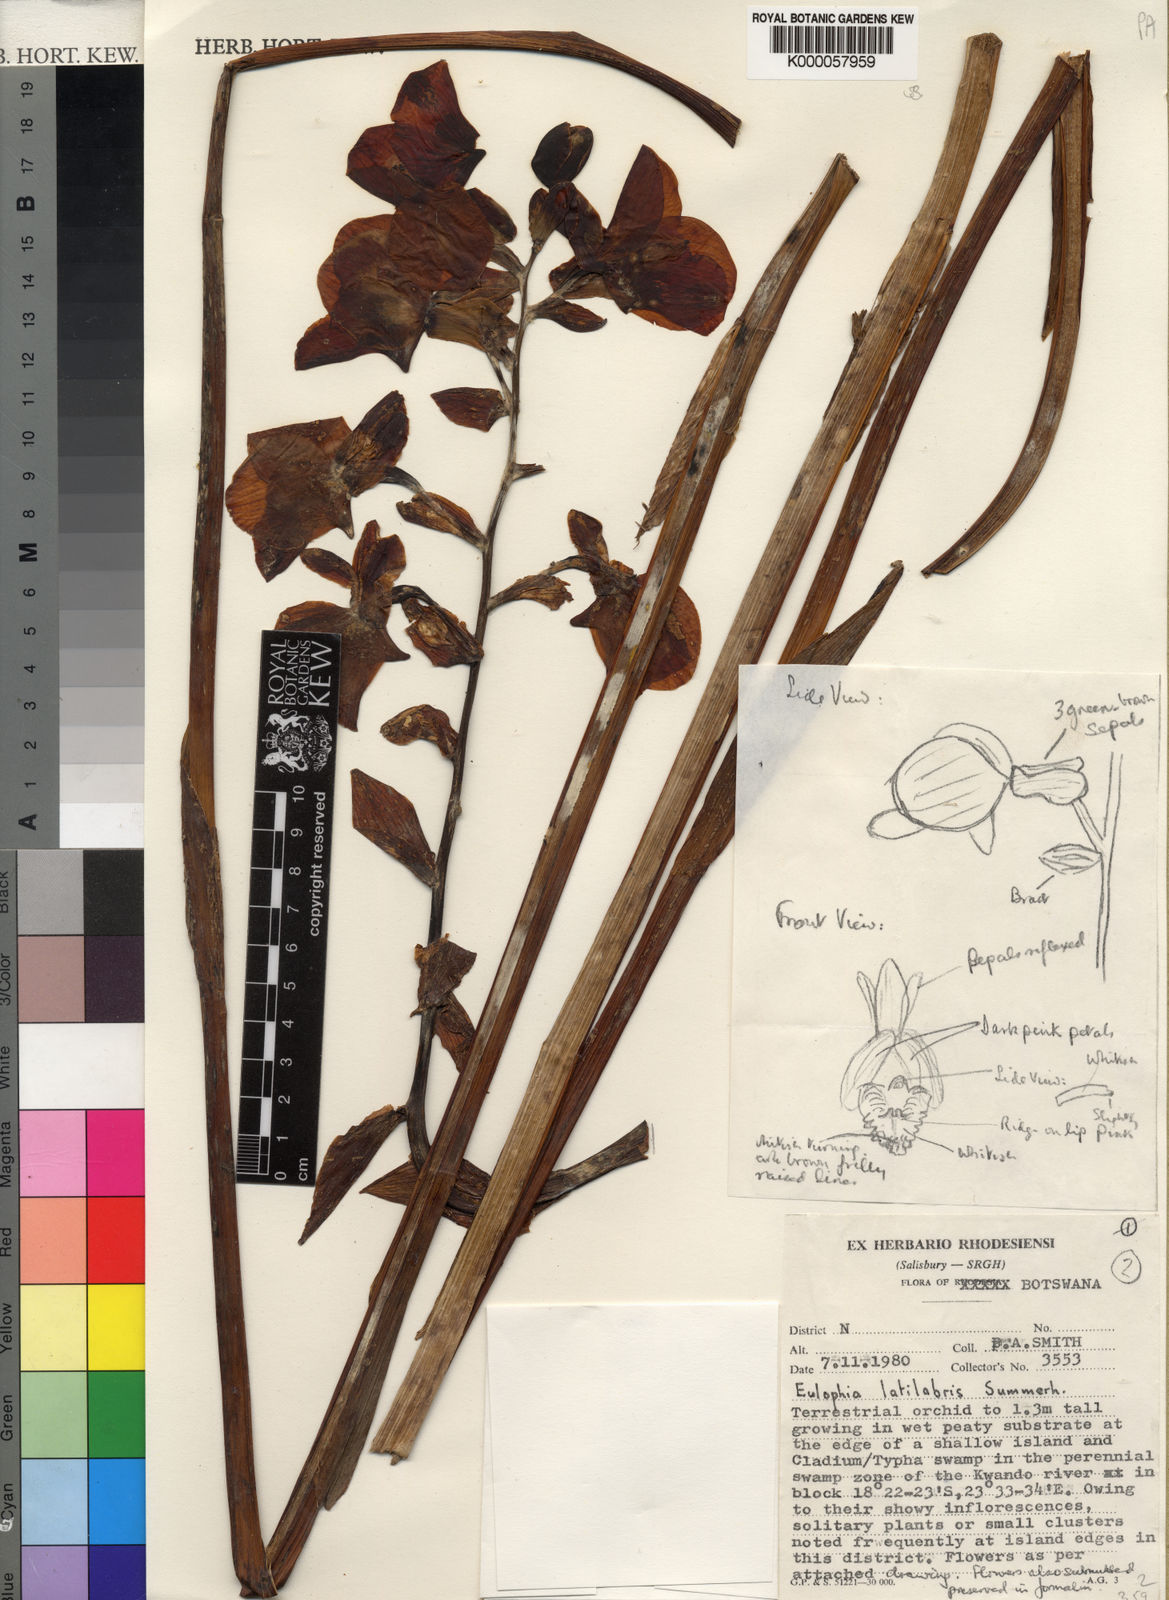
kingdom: Plantae
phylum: Tracheophyta
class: Liliopsida
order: Asparagales
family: Orchidaceae
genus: Eulophia
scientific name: Eulophia latilabris
